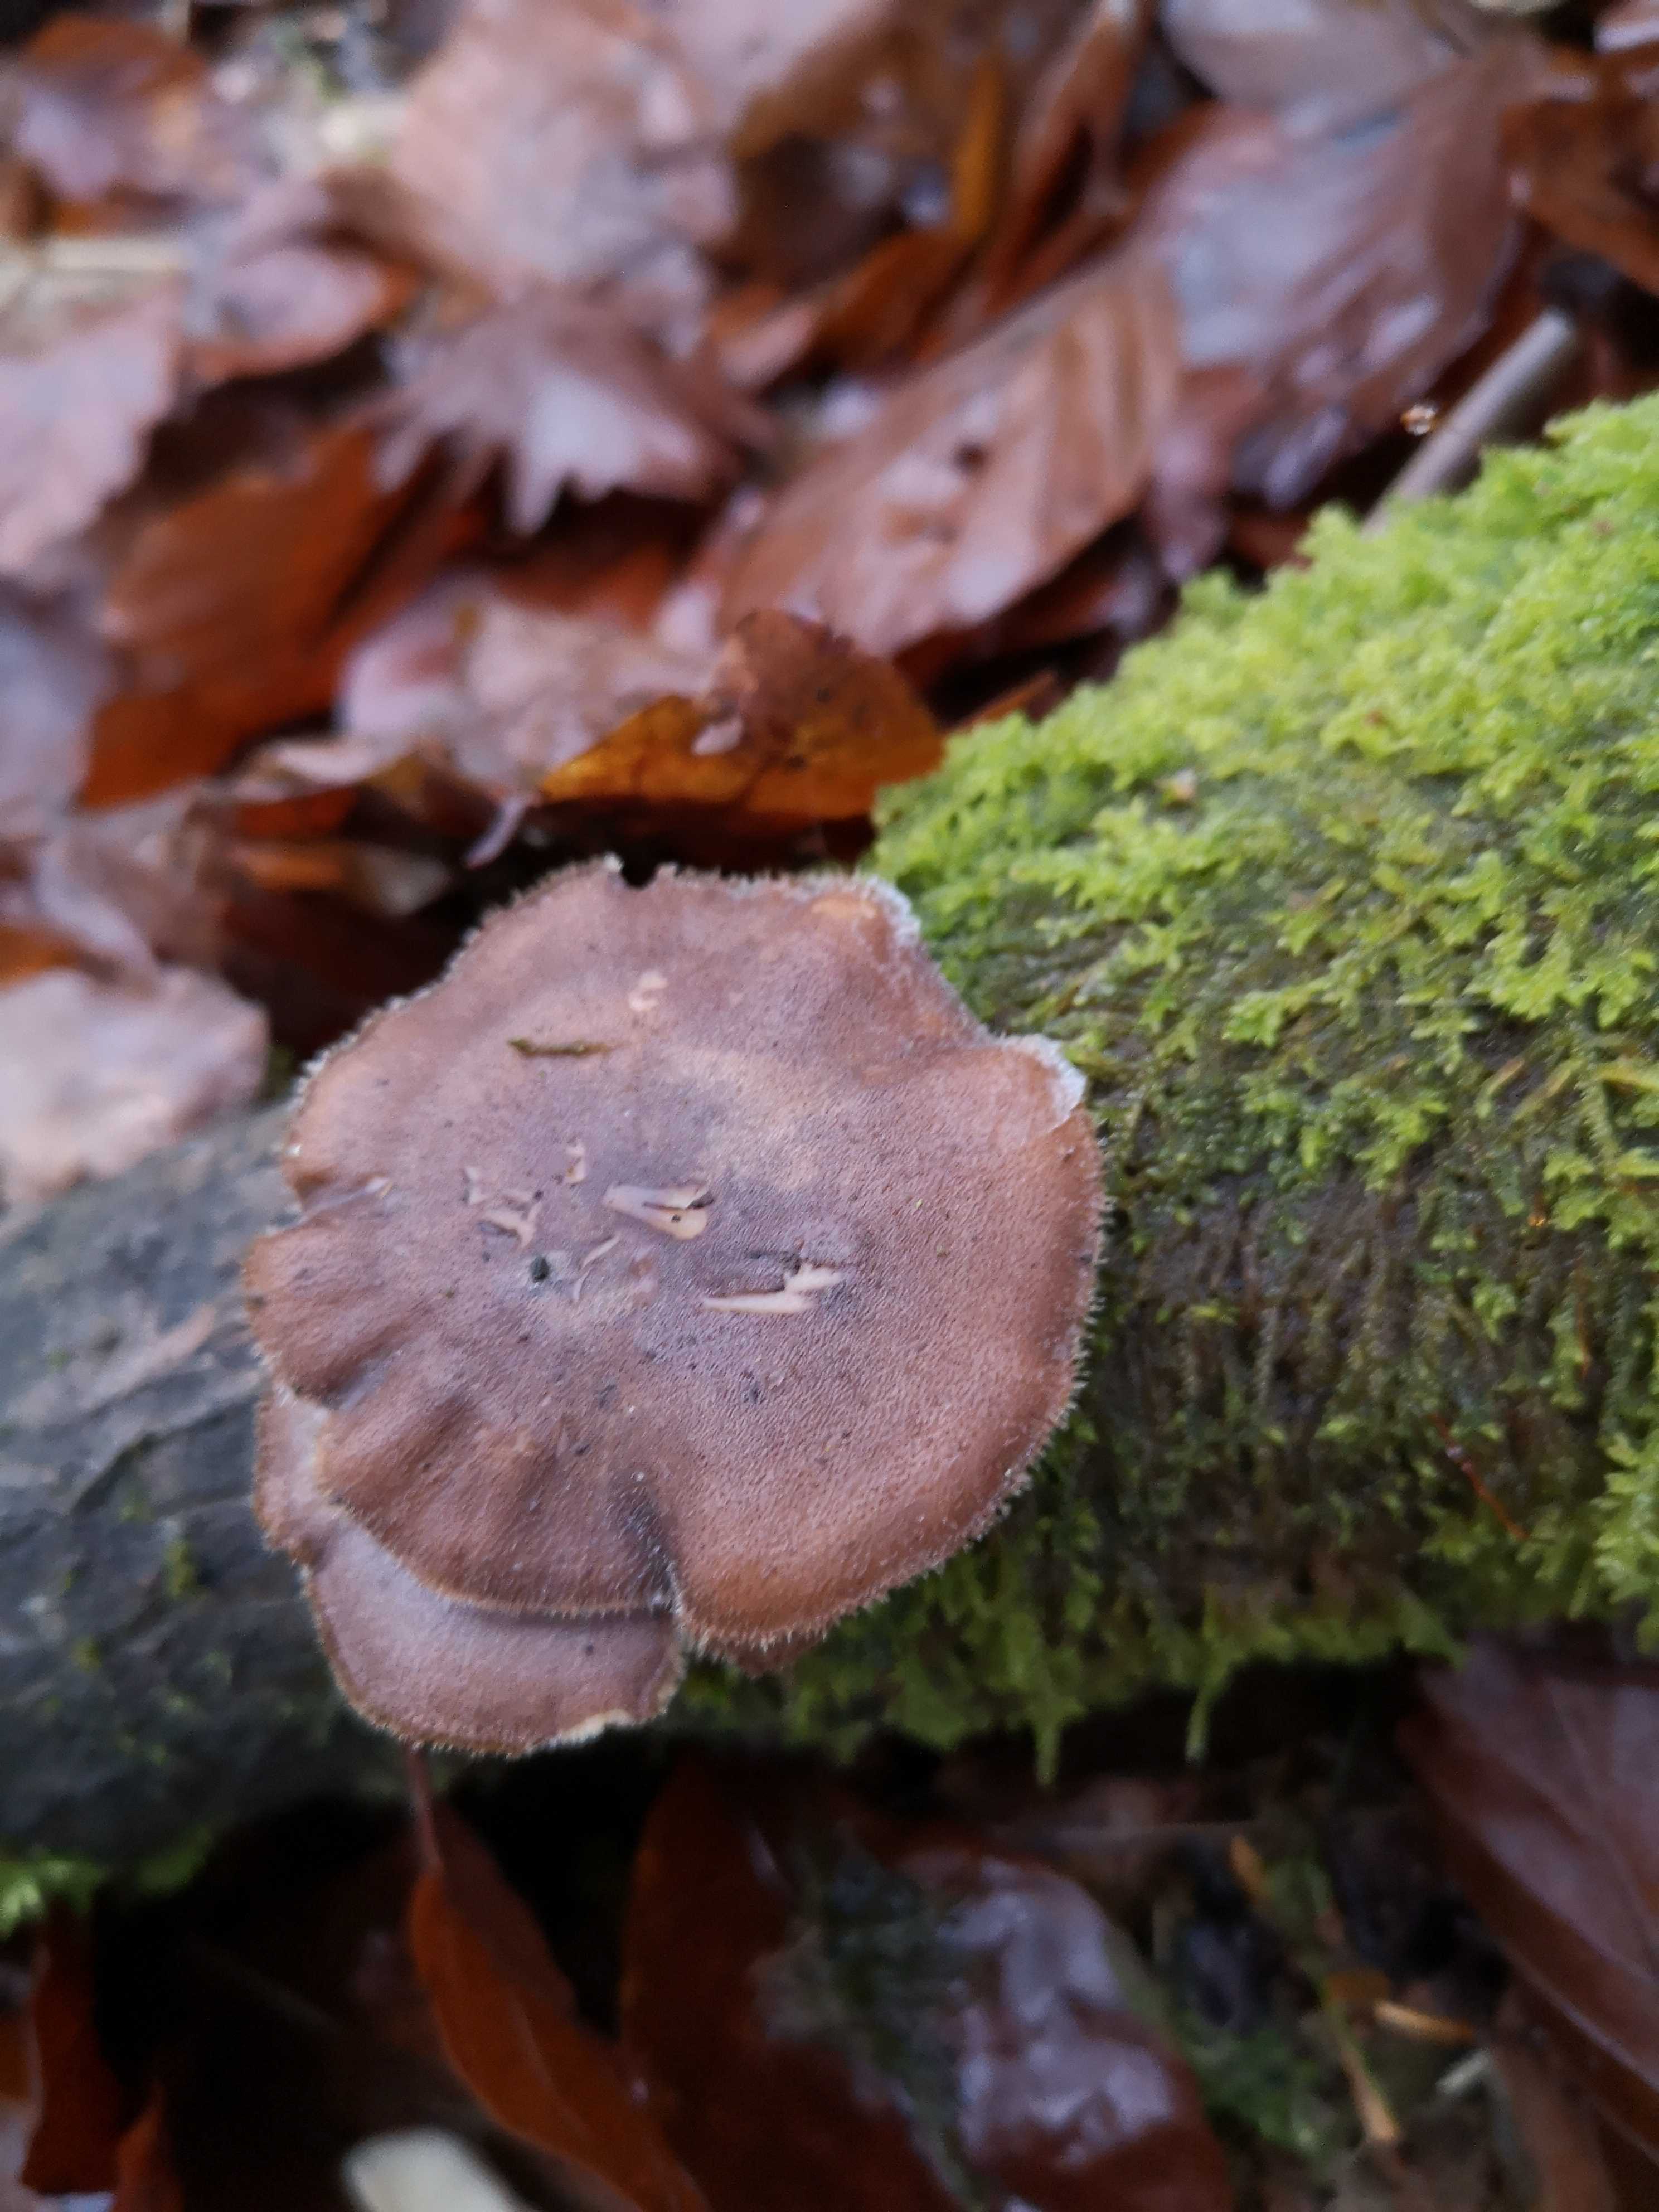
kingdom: Fungi
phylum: Basidiomycota
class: Agaricomycetes
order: Polyporales
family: Polyporaceae
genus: Lentinus
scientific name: Lentinus brumalis
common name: vinter-stilkporesvamp
